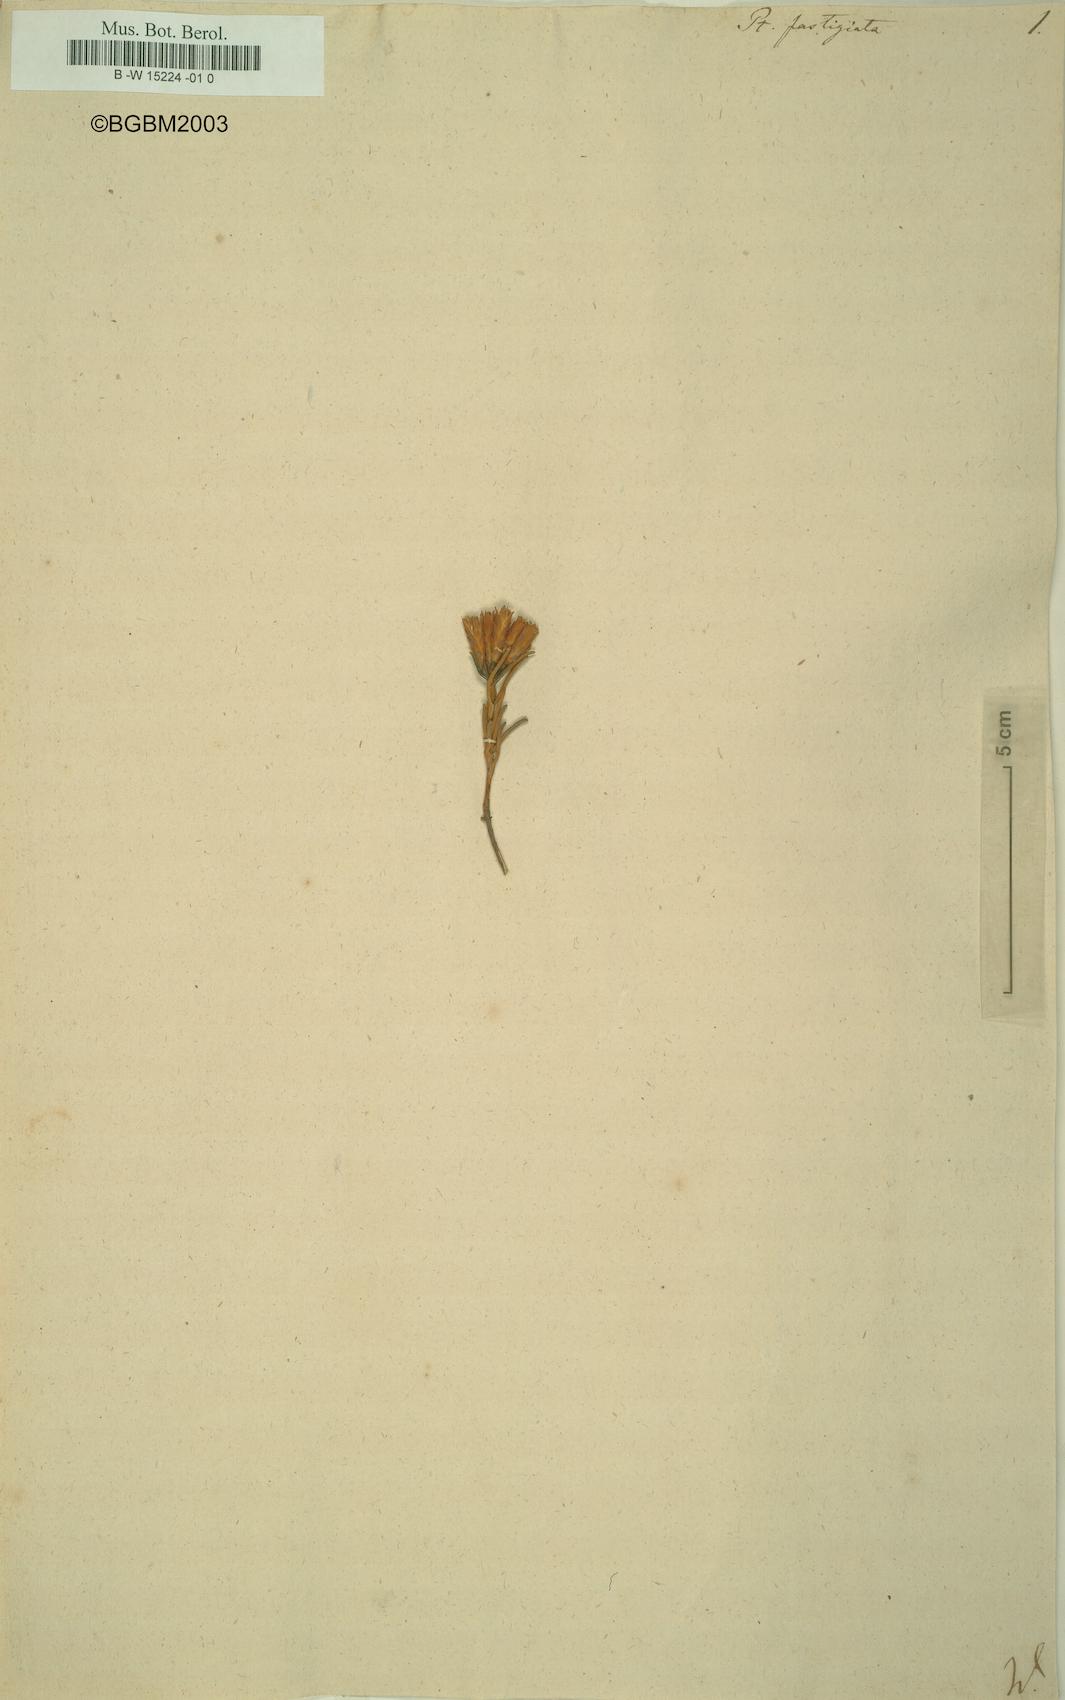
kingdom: Plantae
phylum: Tracheophyta
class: Magnoliopsida
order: Asterales
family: Asteraceae
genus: Pteronia
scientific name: Pteronia fastigiata
